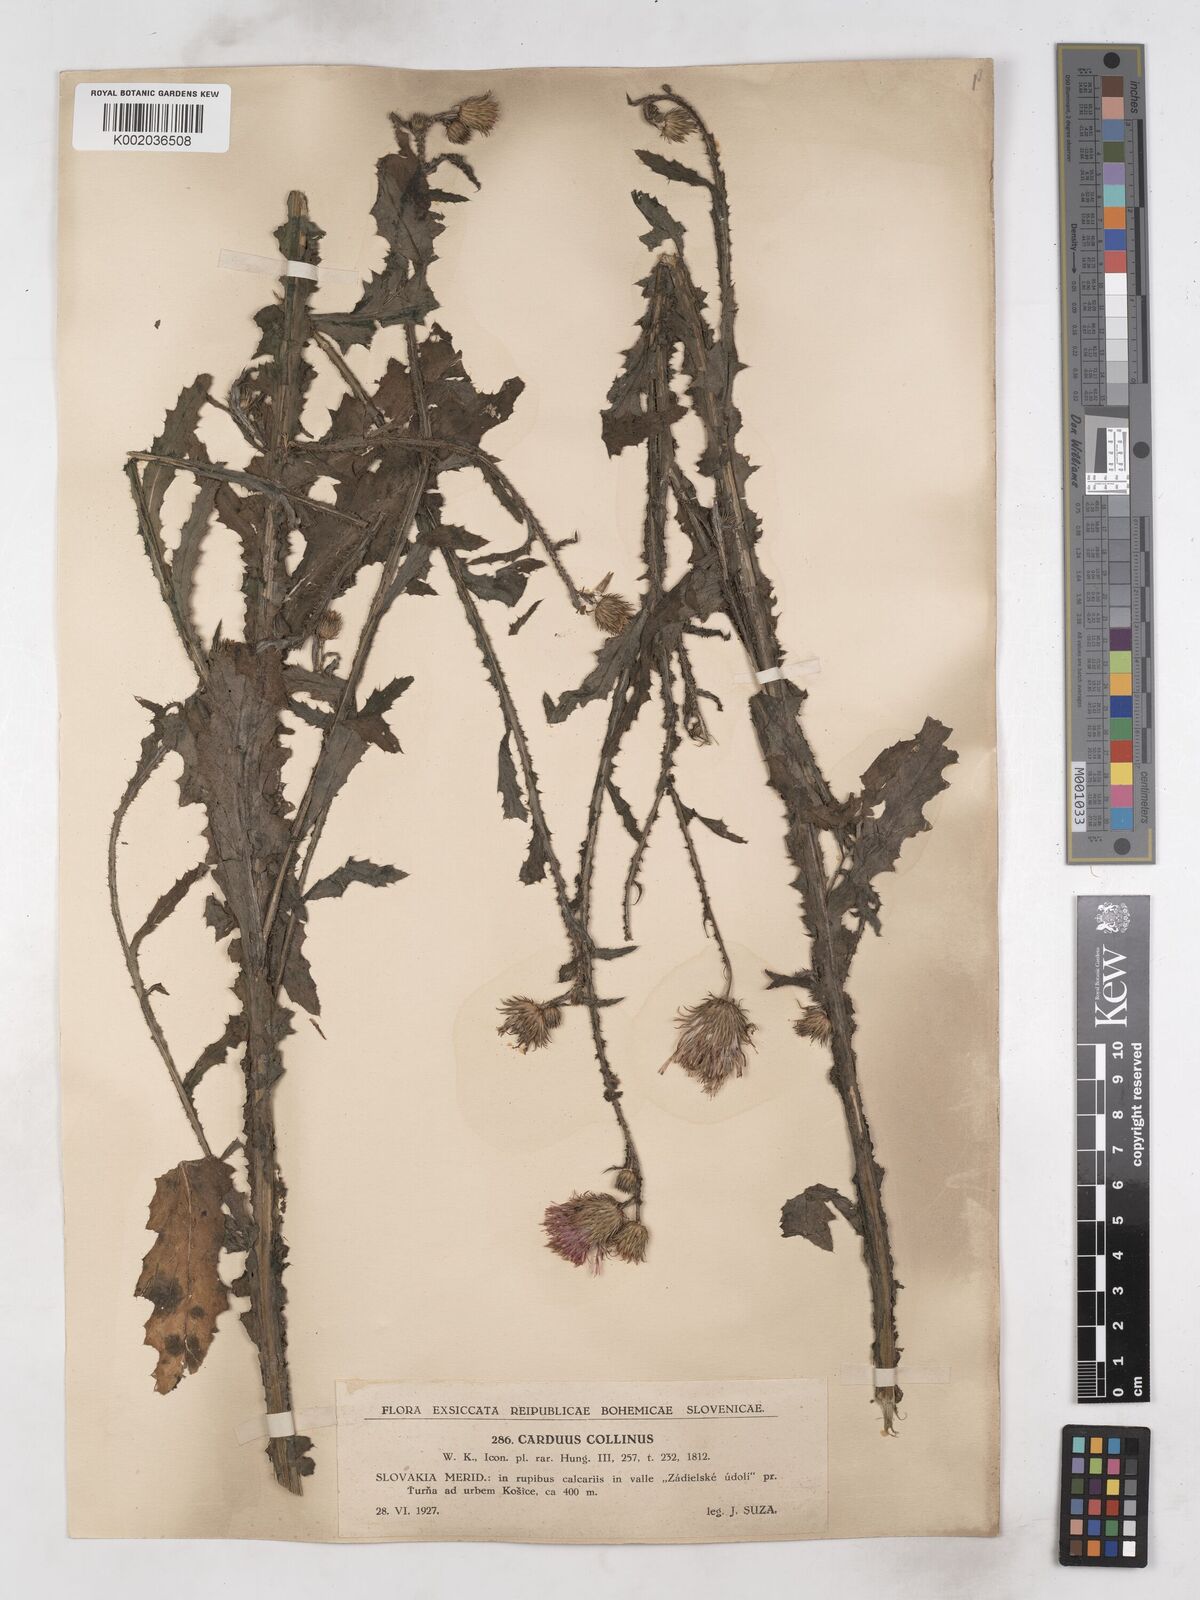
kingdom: Plantae
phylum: Tracheophyta
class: Magnoliopsida
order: Asterales
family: Asteraceae
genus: Carduus
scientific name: Carduus collinus
